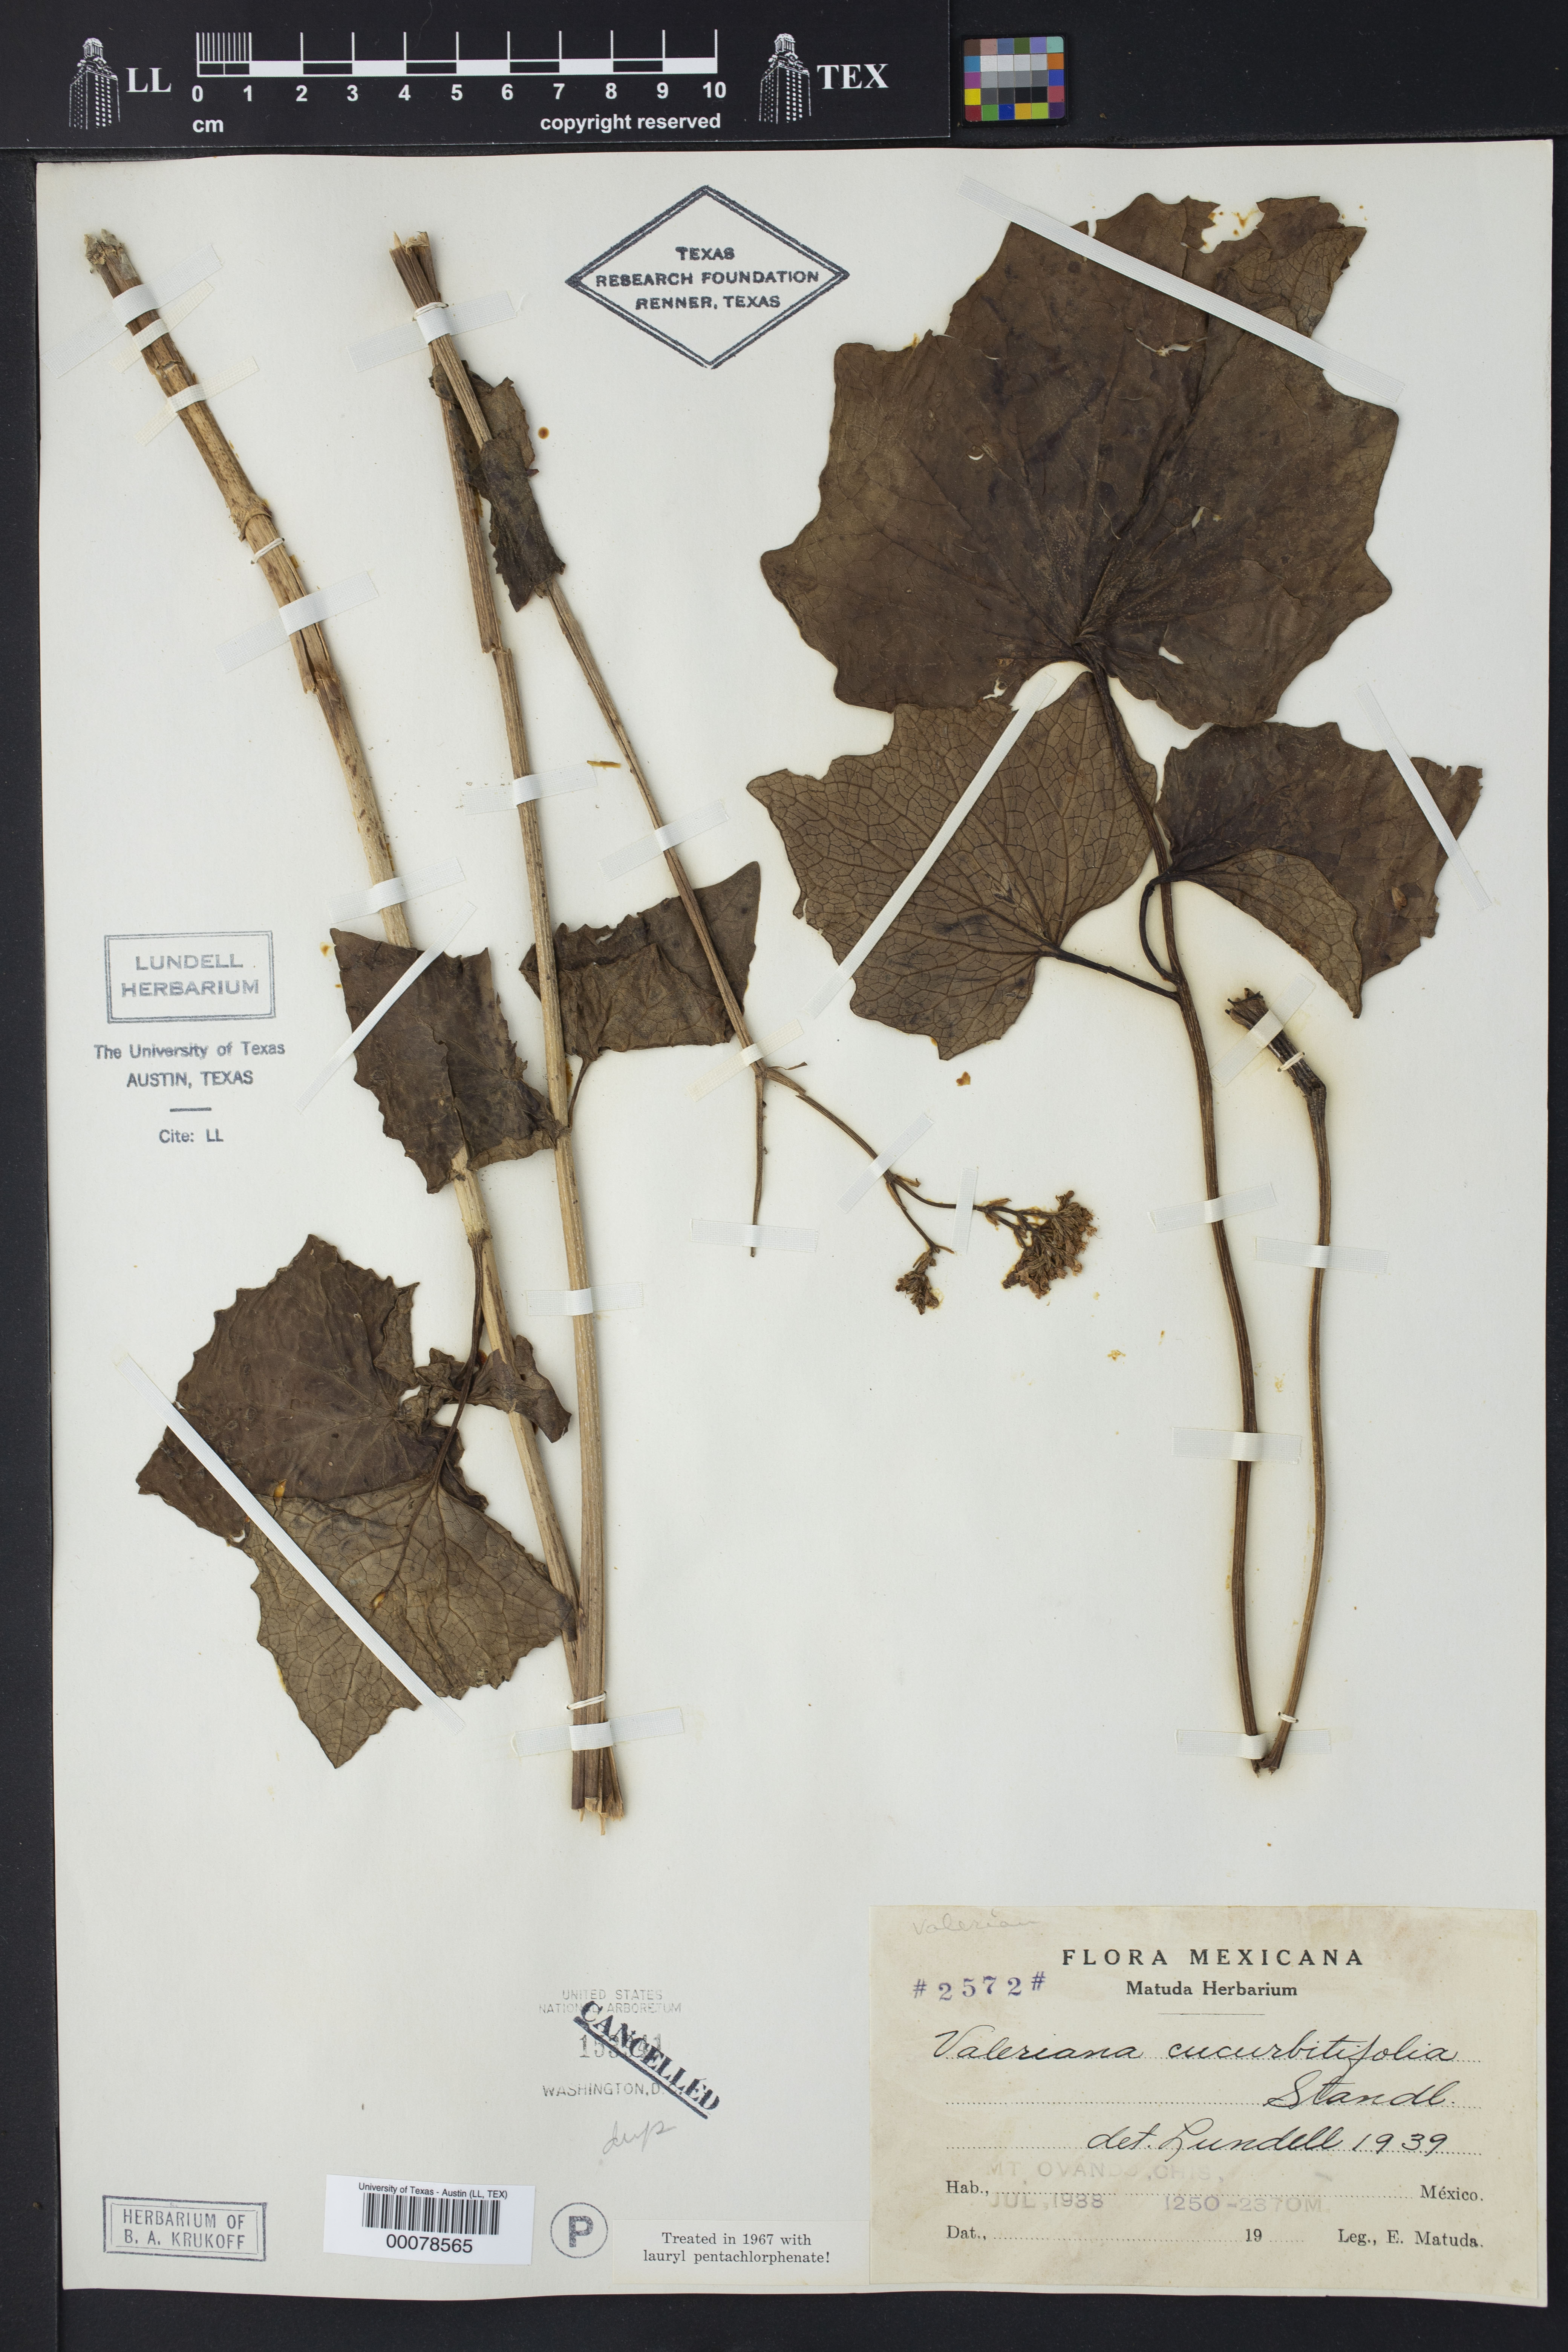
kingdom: Plantae
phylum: Tracheophyta
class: Magnoliopsida
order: Dipsacales
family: Caprifoliaceae
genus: Valeriana
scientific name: Valeriana cucurbitifolia
